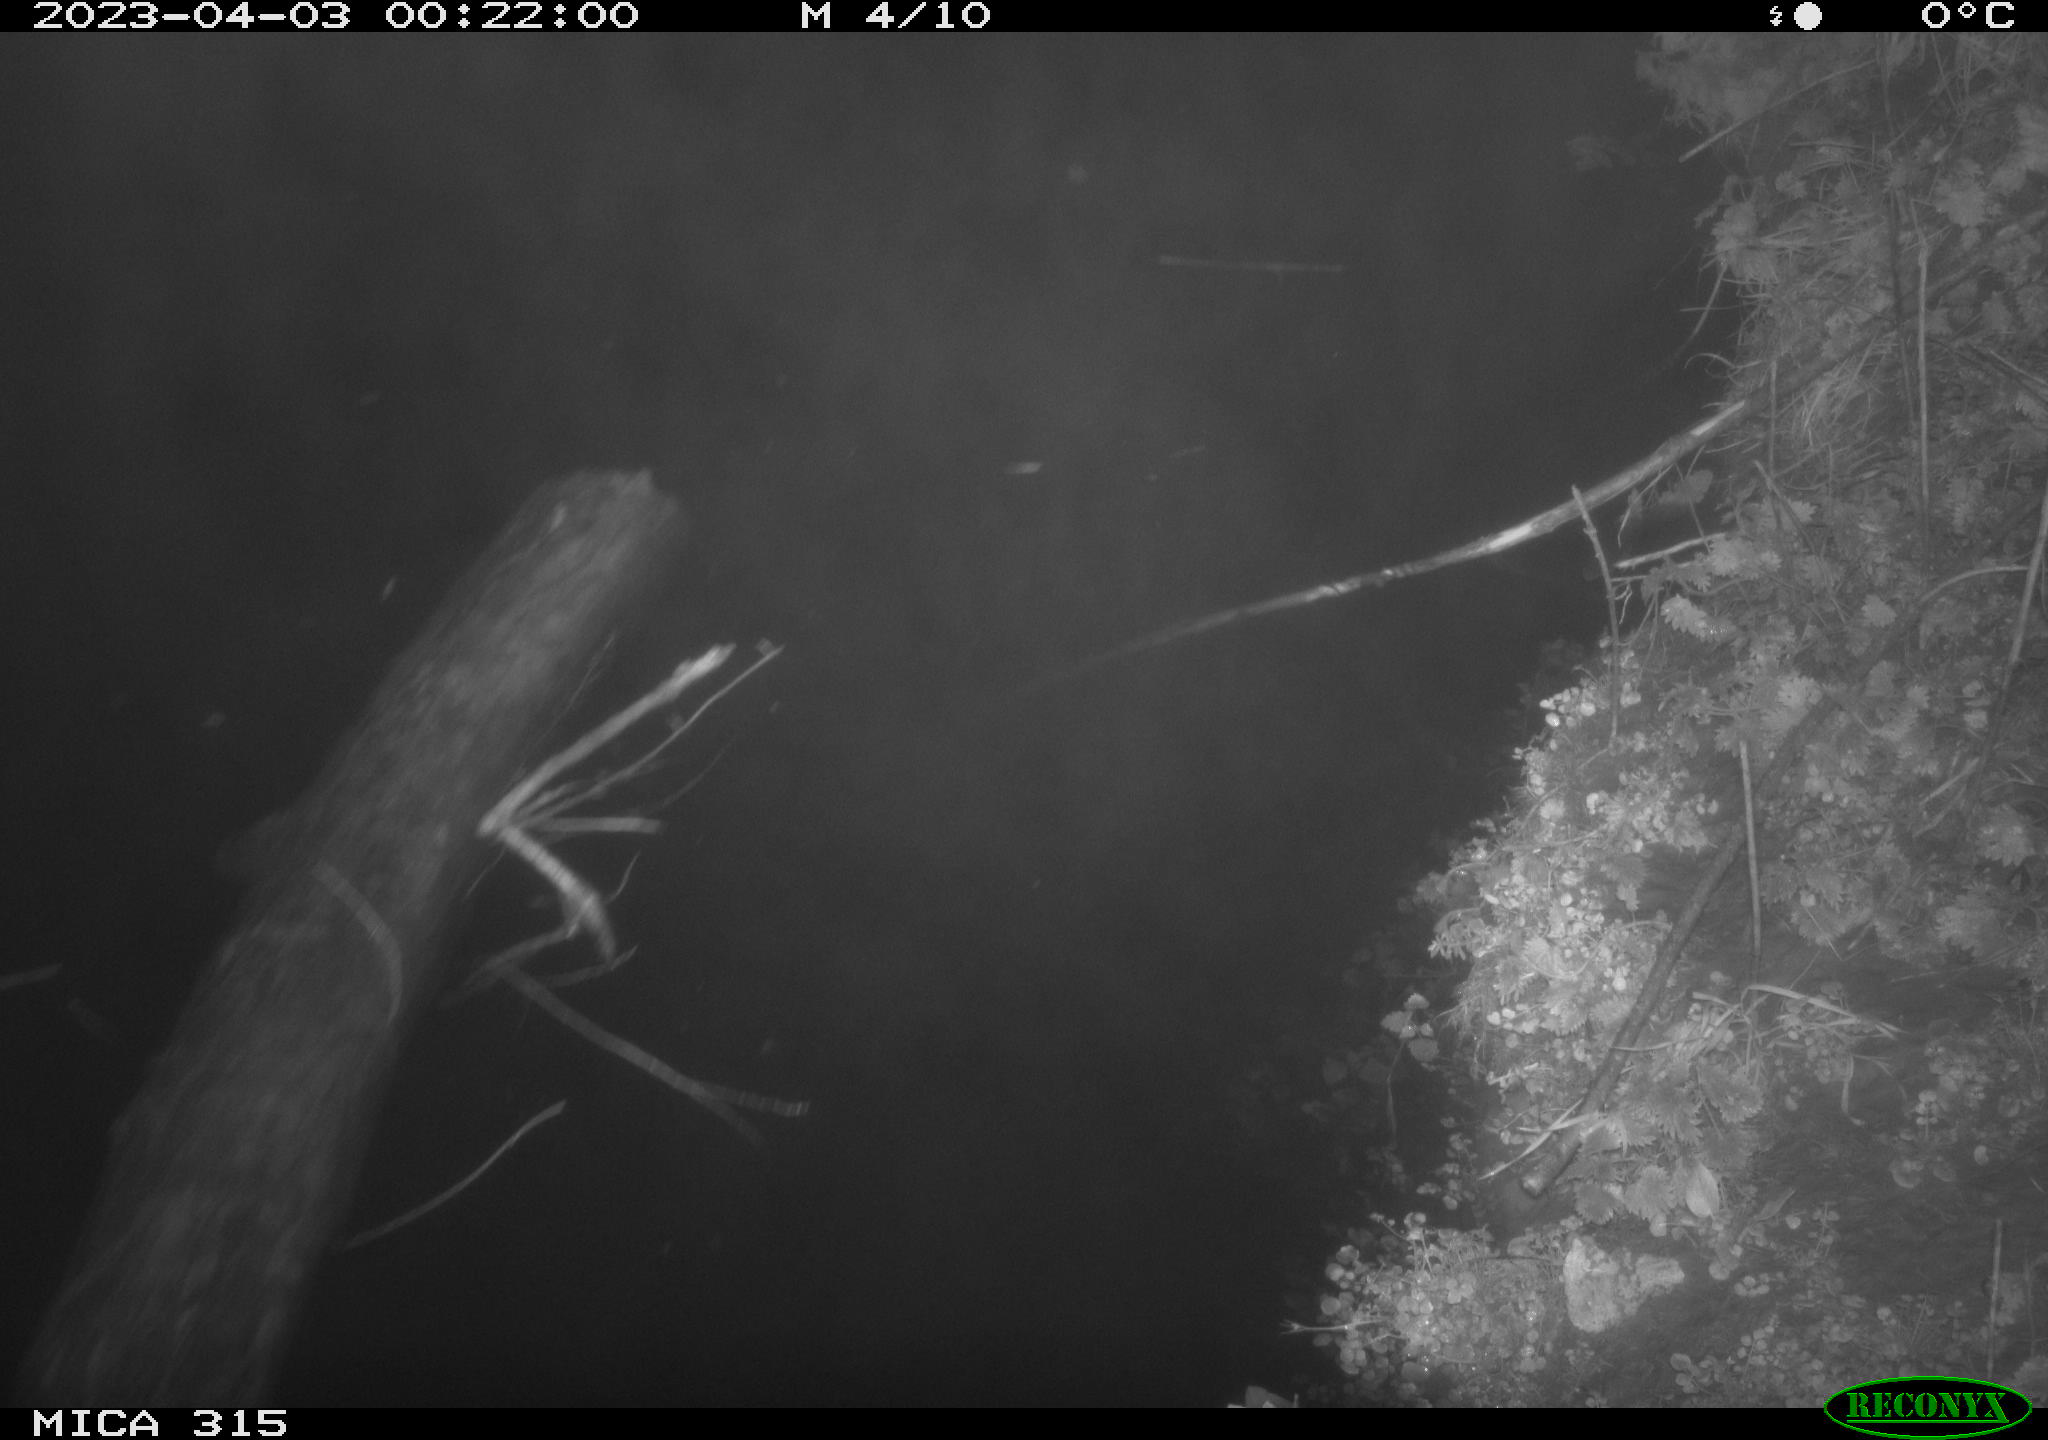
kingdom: Animalia
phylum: Chordata
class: Mammalia
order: Rodentia
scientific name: Rodentia
